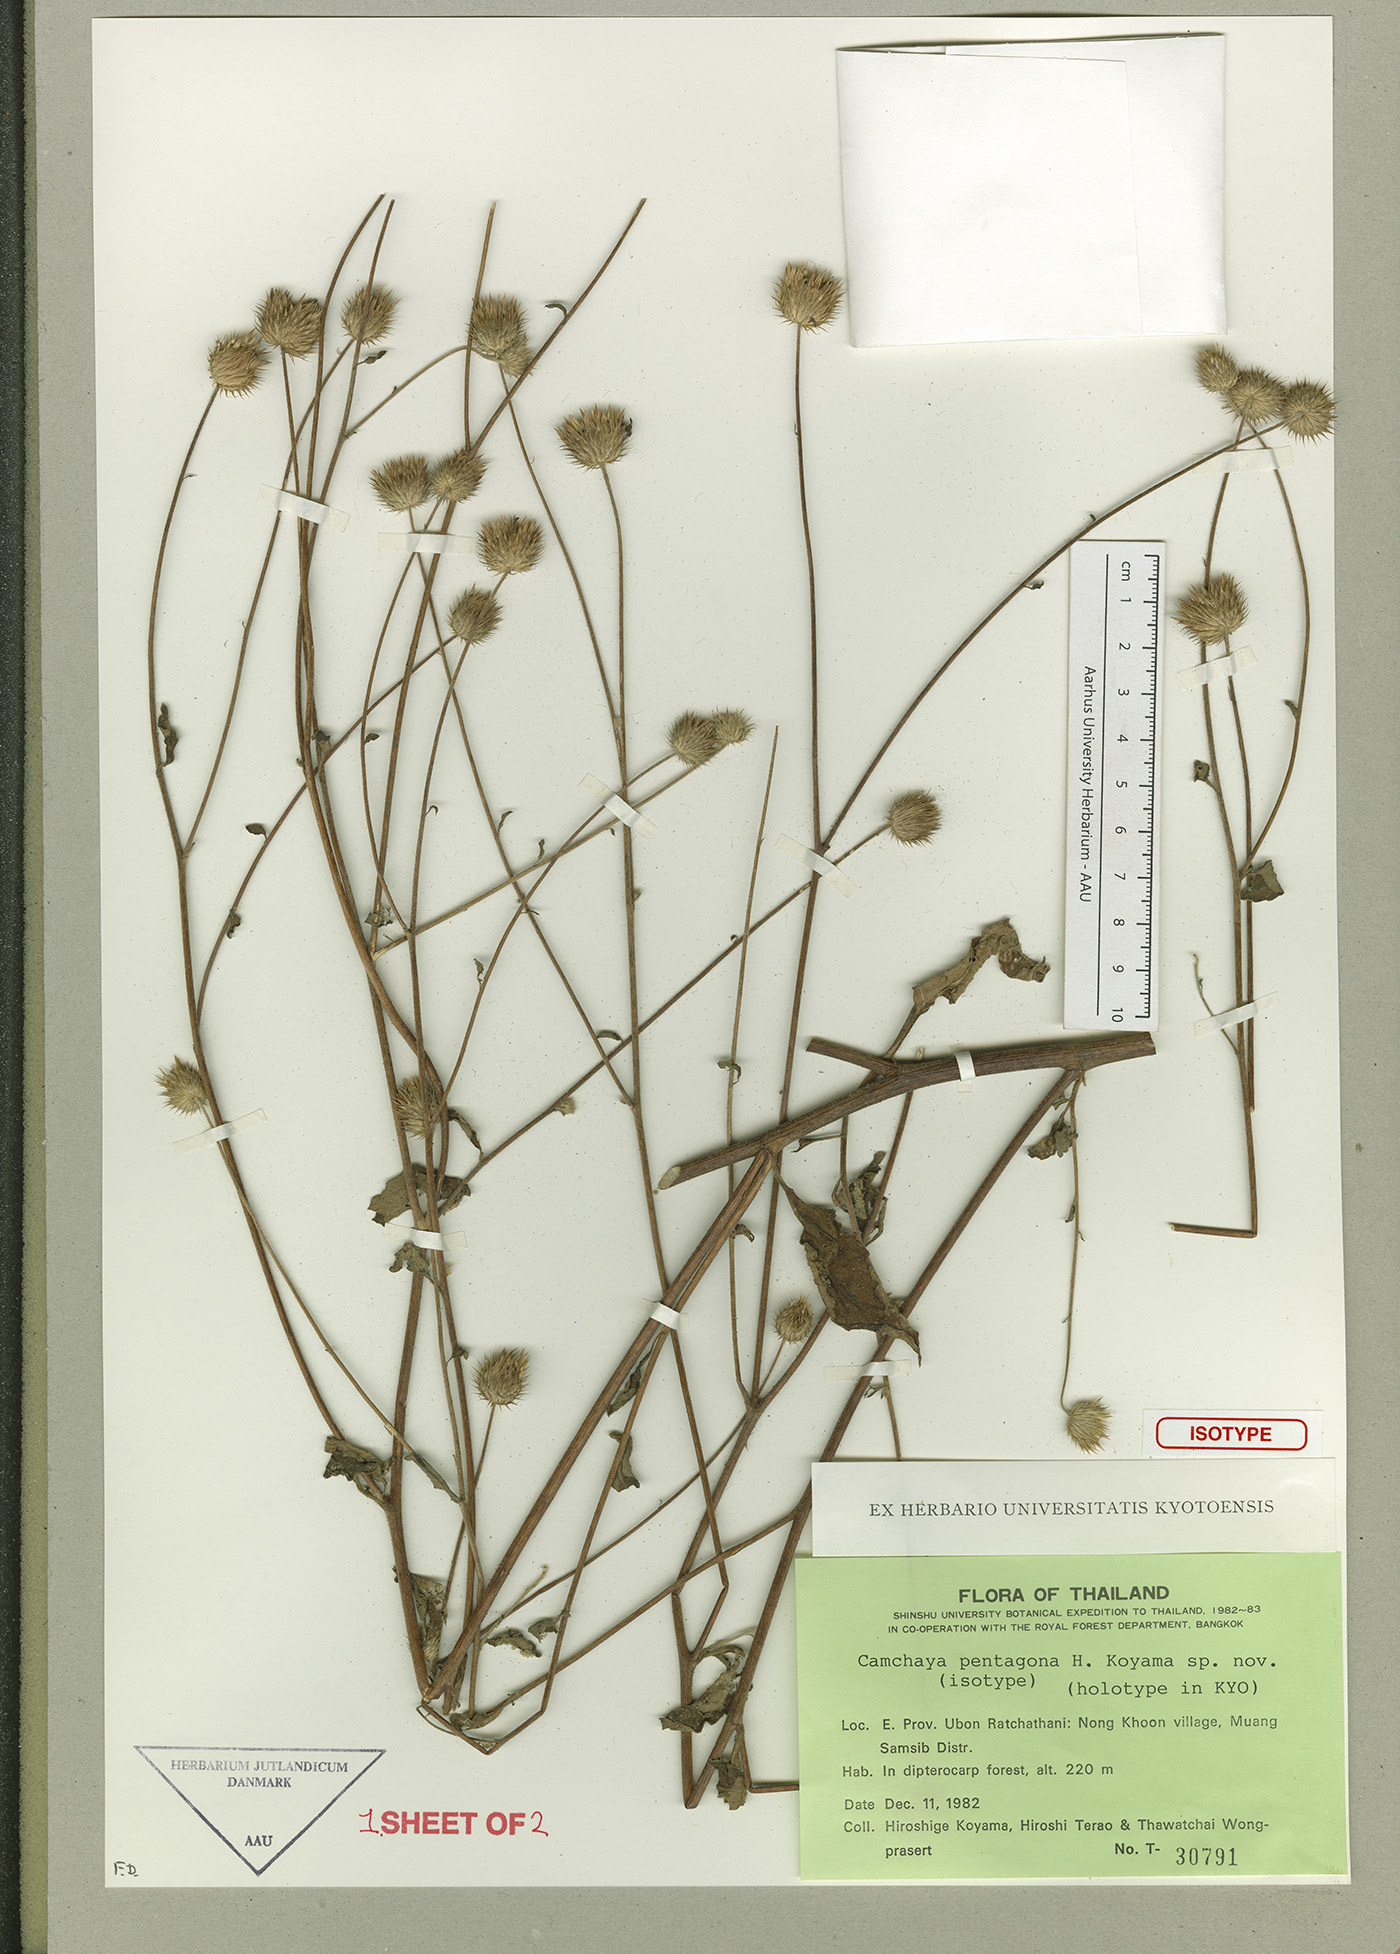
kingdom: Plantae
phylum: Tracheophyta
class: Magnoliopsida
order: Asterales
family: Asteraceae
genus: Camchaya
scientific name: Camchaya pentagona
